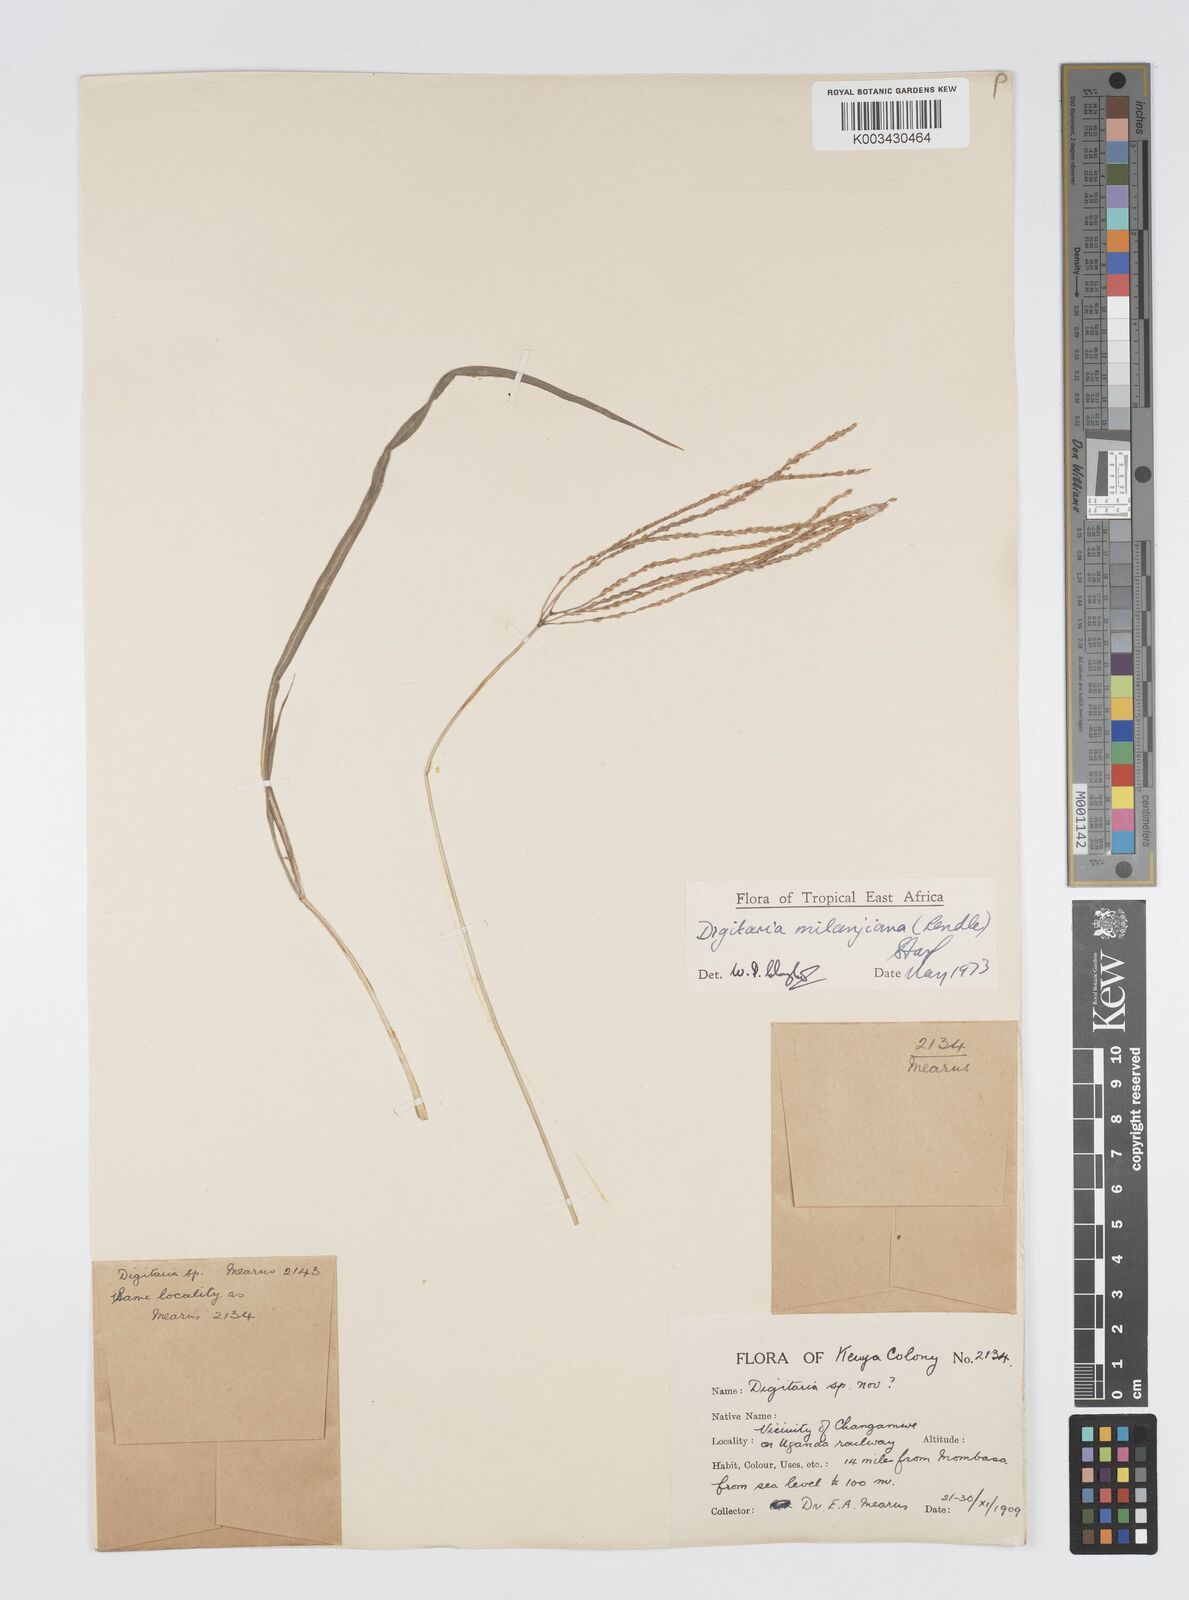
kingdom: Plantae
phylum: Tracheophyta
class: Liliopsida
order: Poales
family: Poaceae
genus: Digitaria
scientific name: Digitaria milanjiana
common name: Madagascar crabgrass
